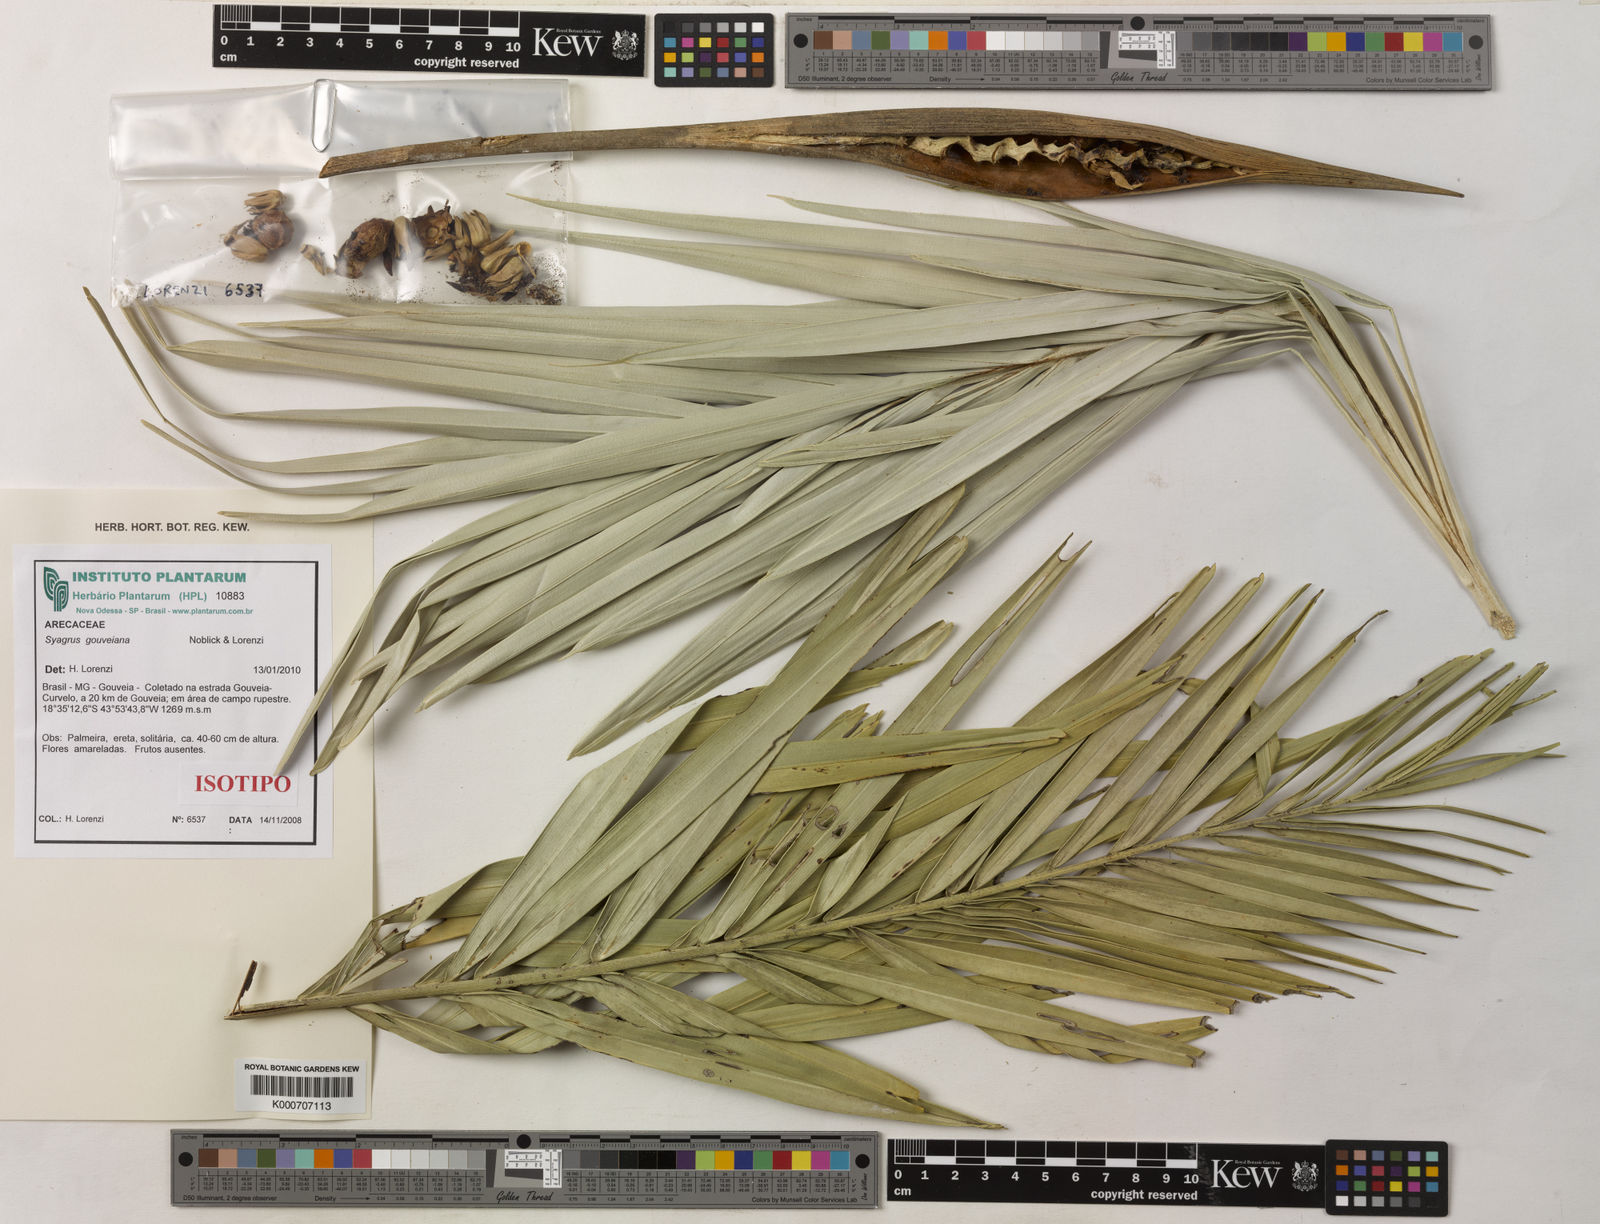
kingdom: Plantae
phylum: Tracheophyta
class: Liliopsida
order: Arecales
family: Arecaceae
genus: Syagrus
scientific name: Syagrus gouveiana
